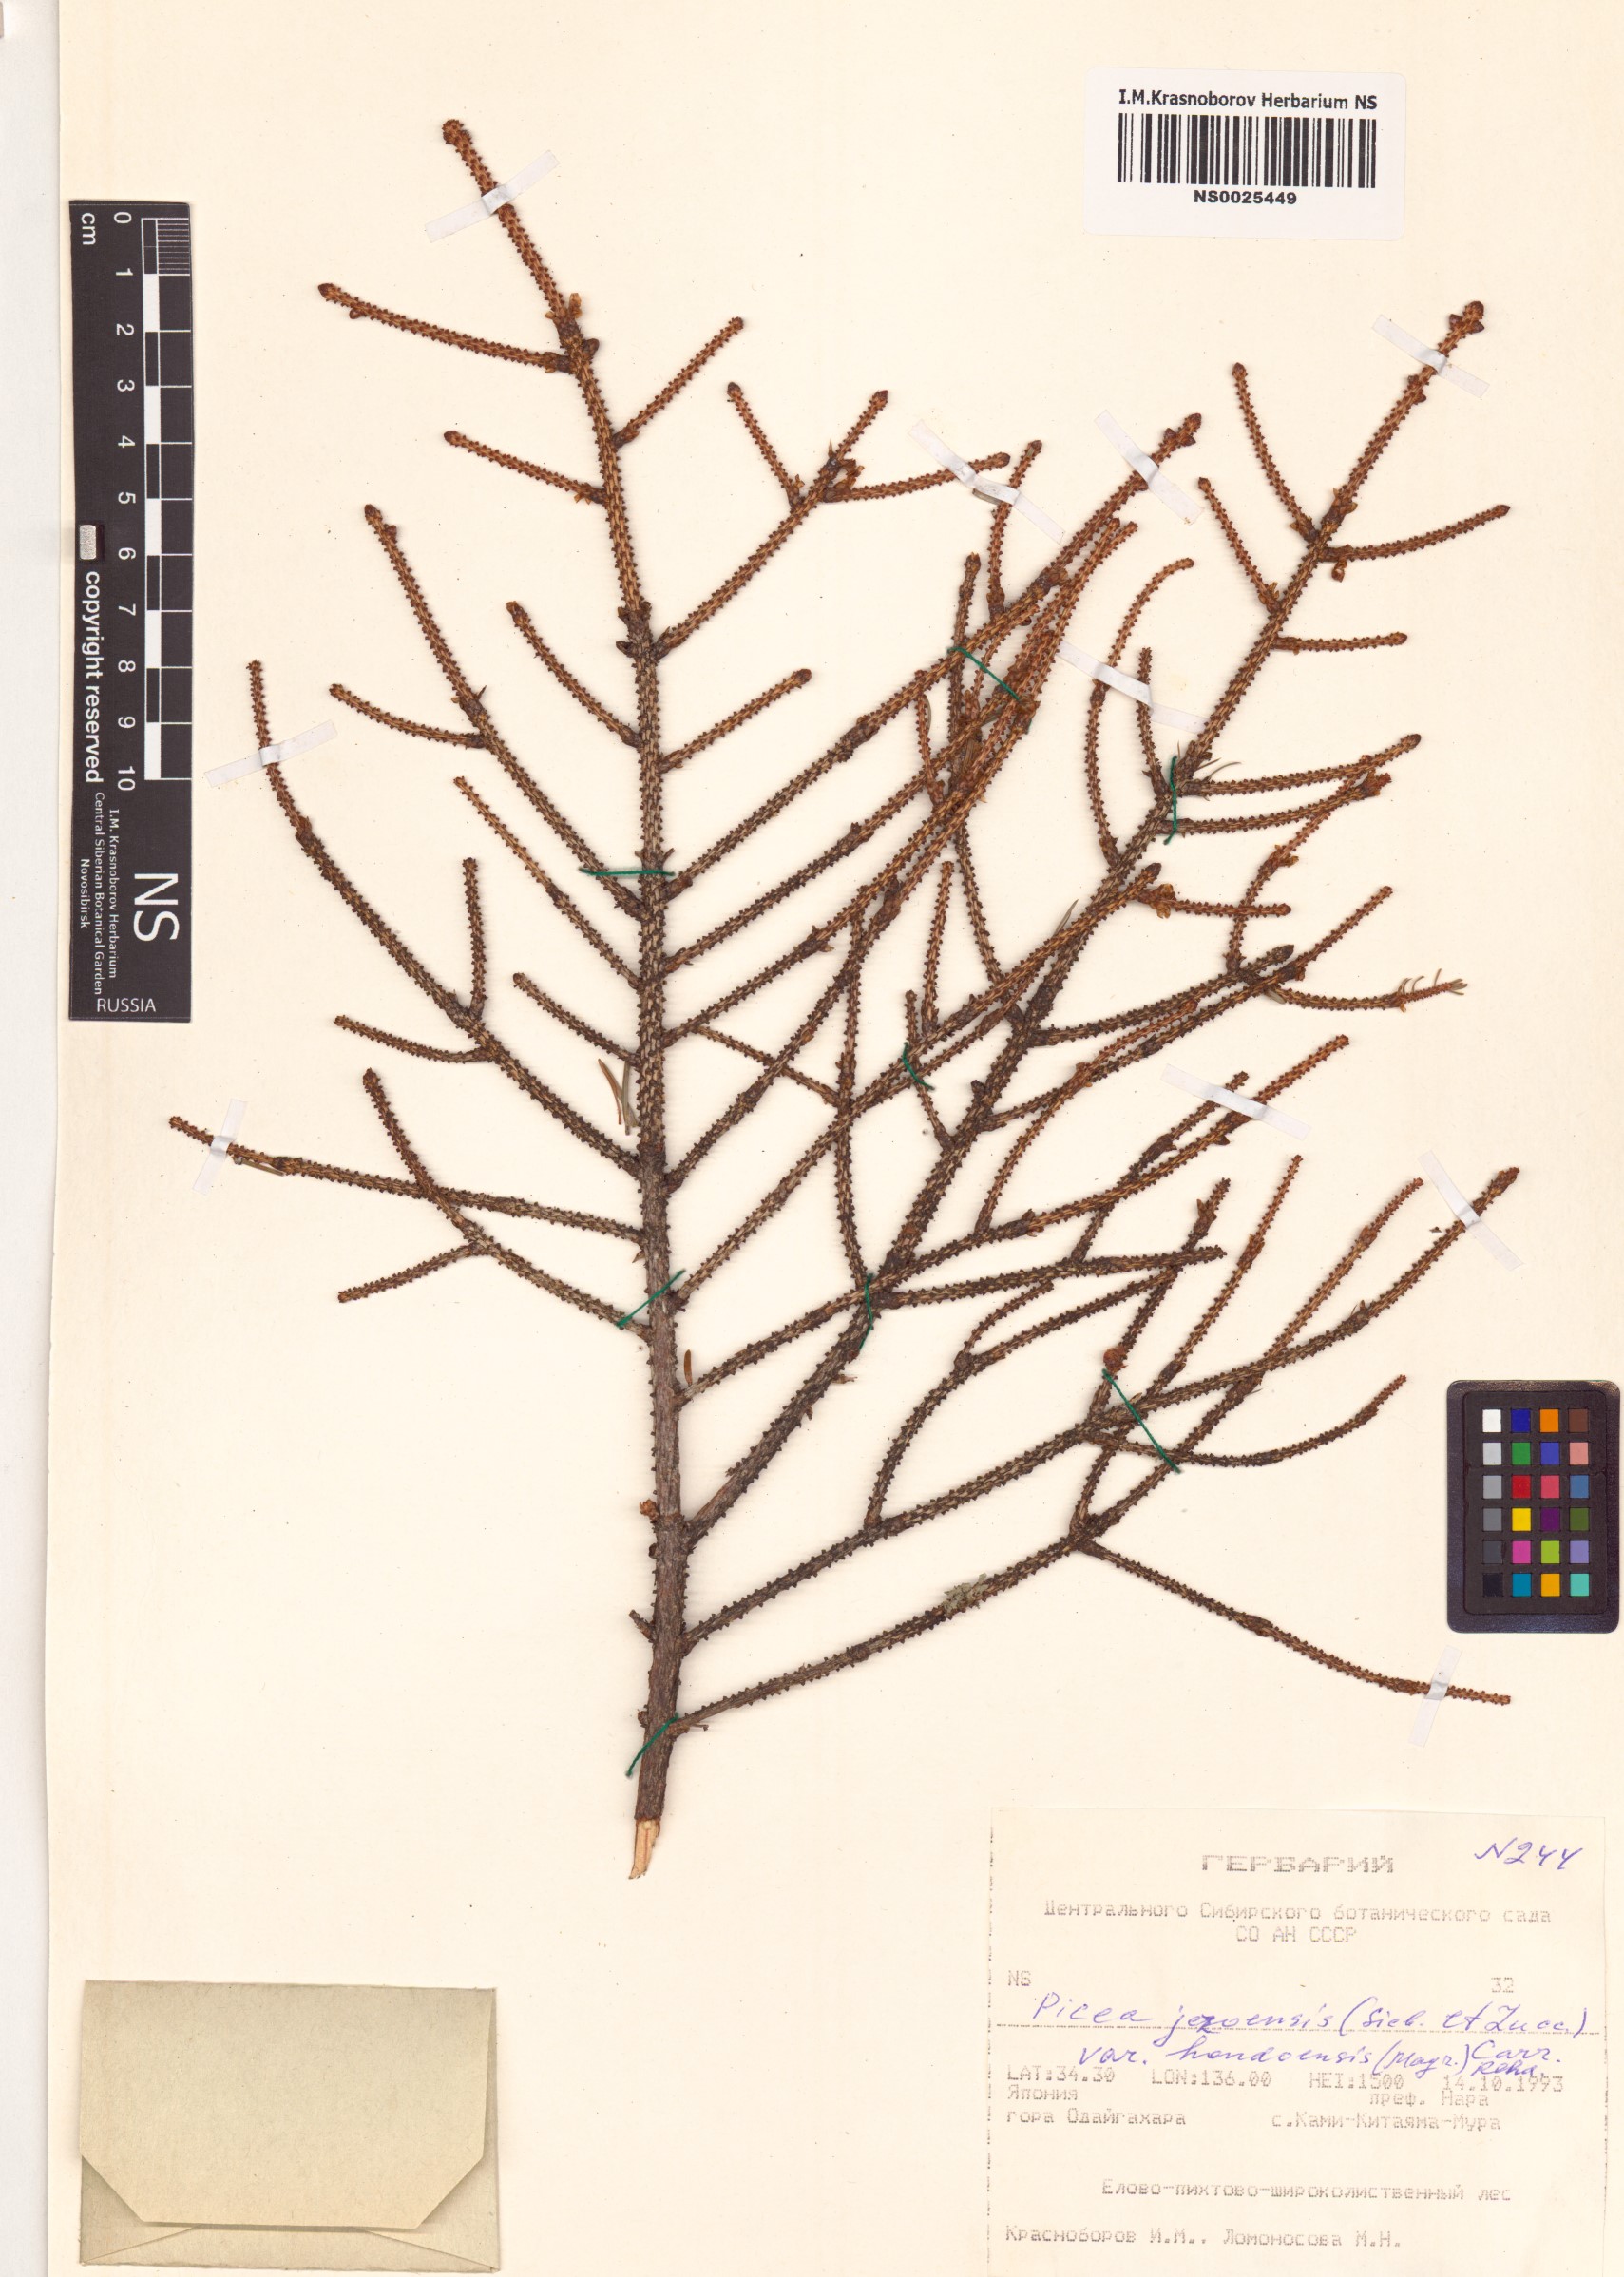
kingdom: Plantae
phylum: Tracheophyta
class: Pinopsida
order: Pinales
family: Pinaceae
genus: Picea
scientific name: Picea jezoensis
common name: Yeddo spruce
